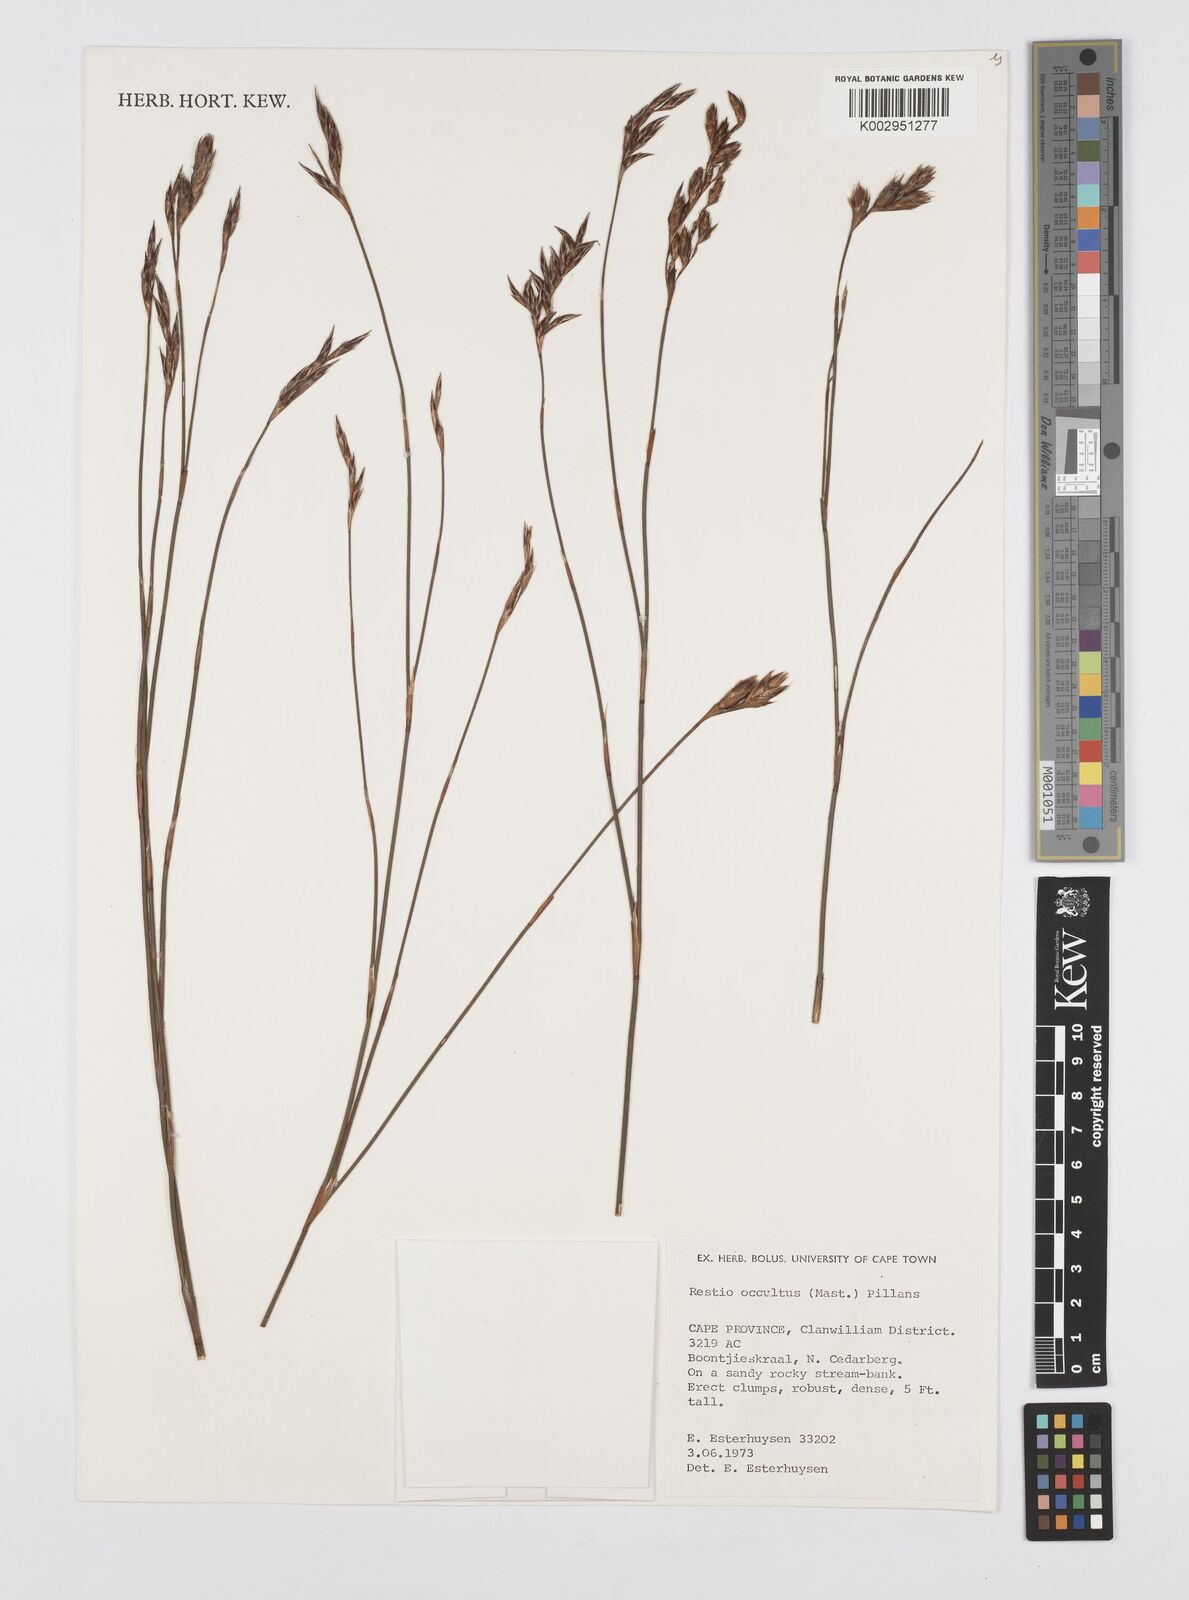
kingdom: Plantae
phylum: Tracheophyta
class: Liliopsida
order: Poales
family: Restionaceae
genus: Restio
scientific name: Restio occultus
